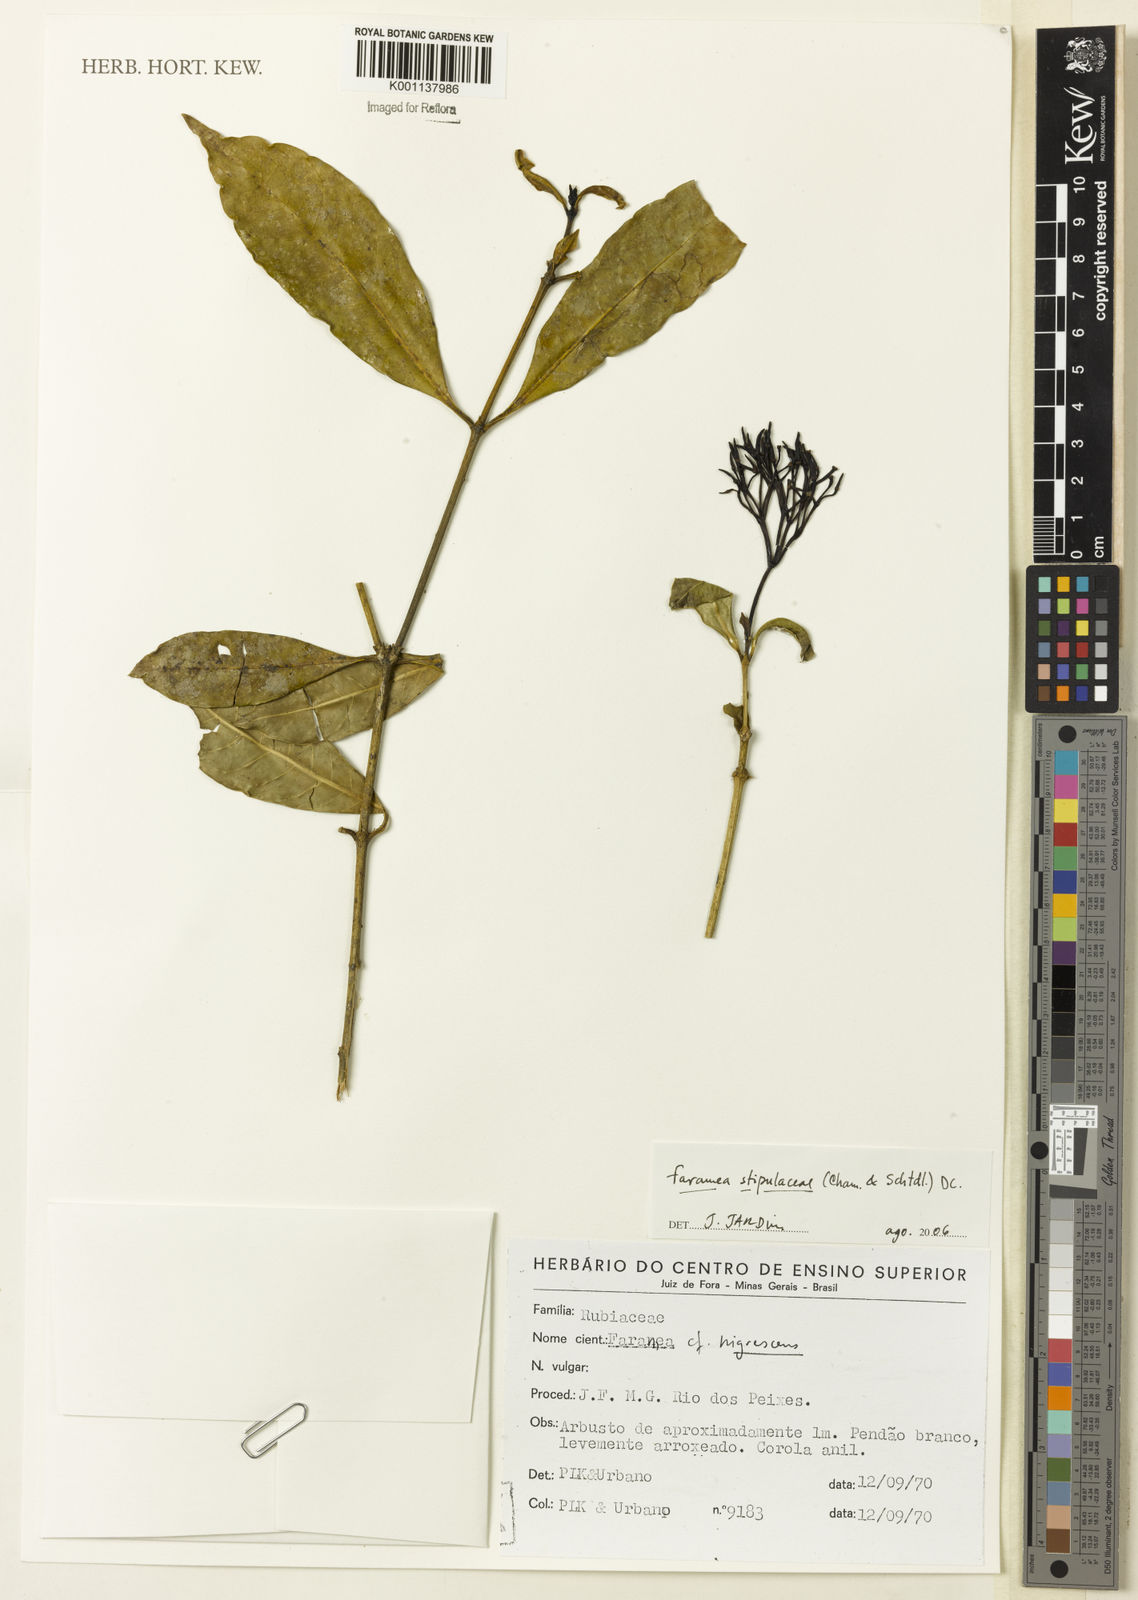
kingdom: Plantae
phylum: Tracheophyta
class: Magnoliopsida
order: Gentianales
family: Rubiaceae
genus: Faramea
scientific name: Faramea stipulacea
